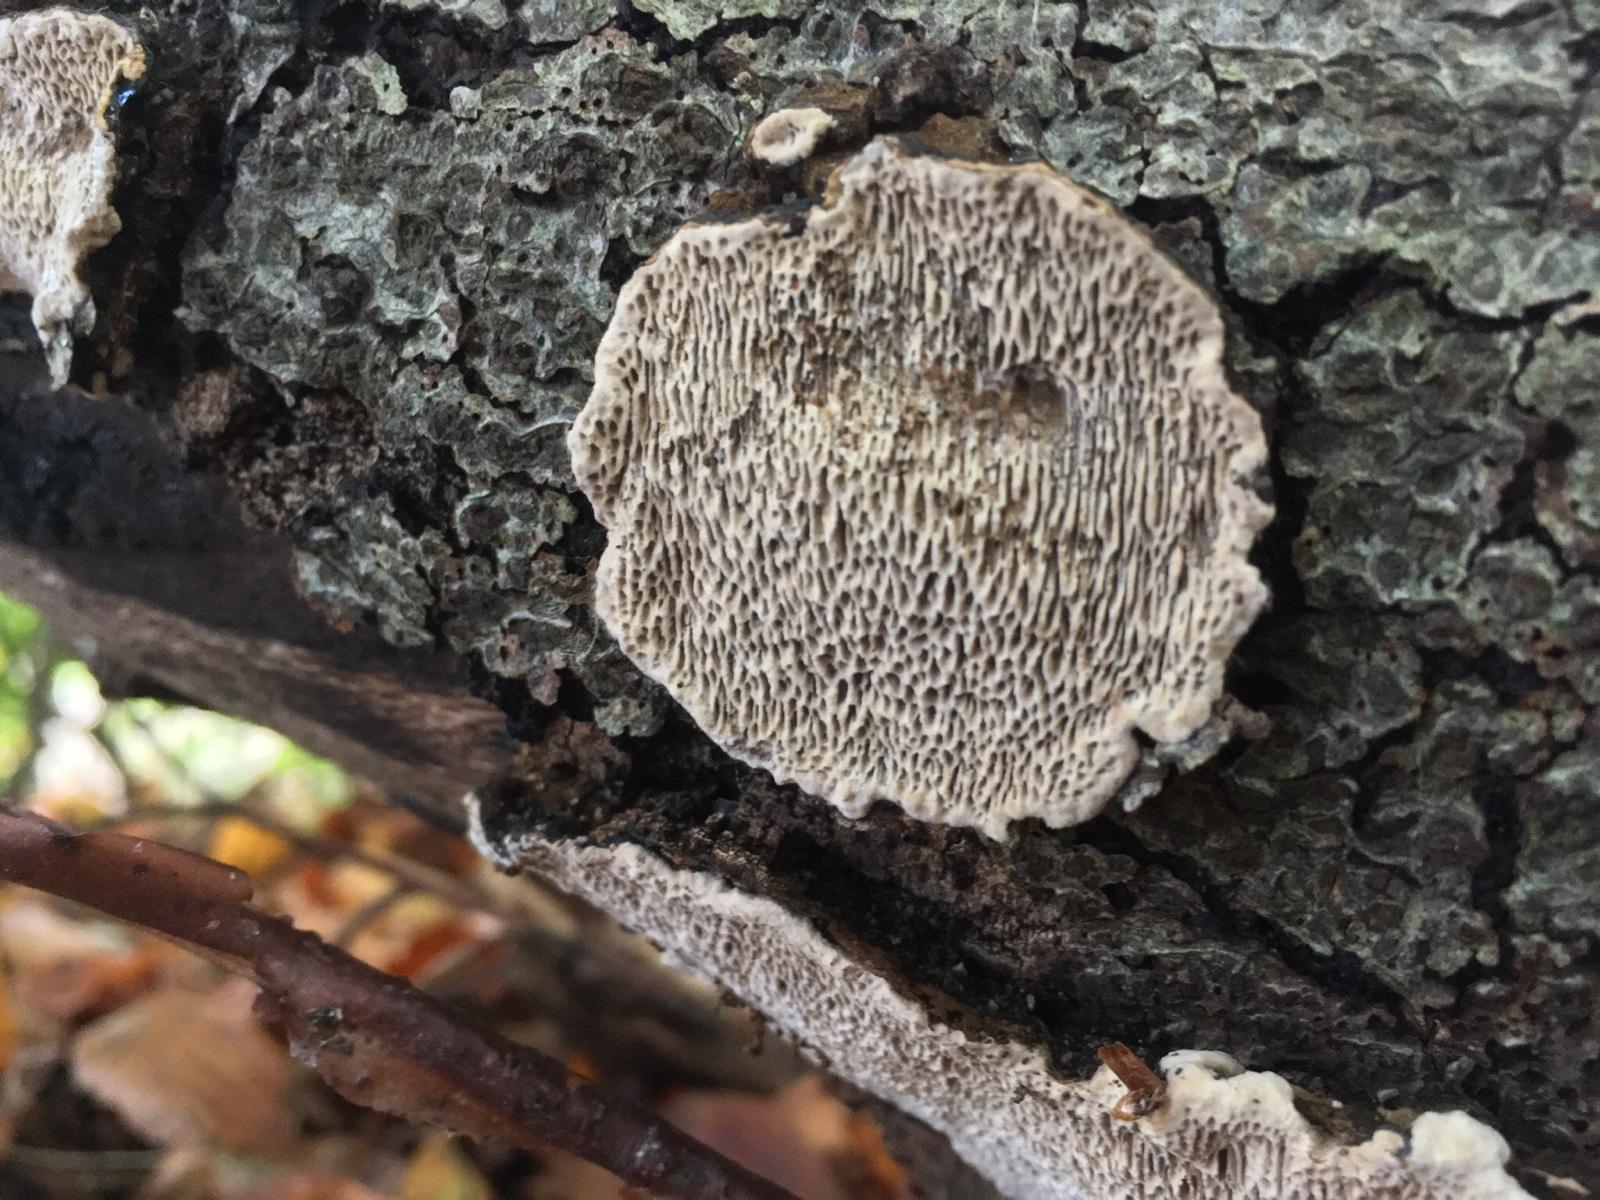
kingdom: Fungi
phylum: Basidiomycota
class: Agaricomycetes
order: Polyporales
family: Polyporaceae
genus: Podofomes
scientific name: Podofomes mollis
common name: blød begporesvamp
